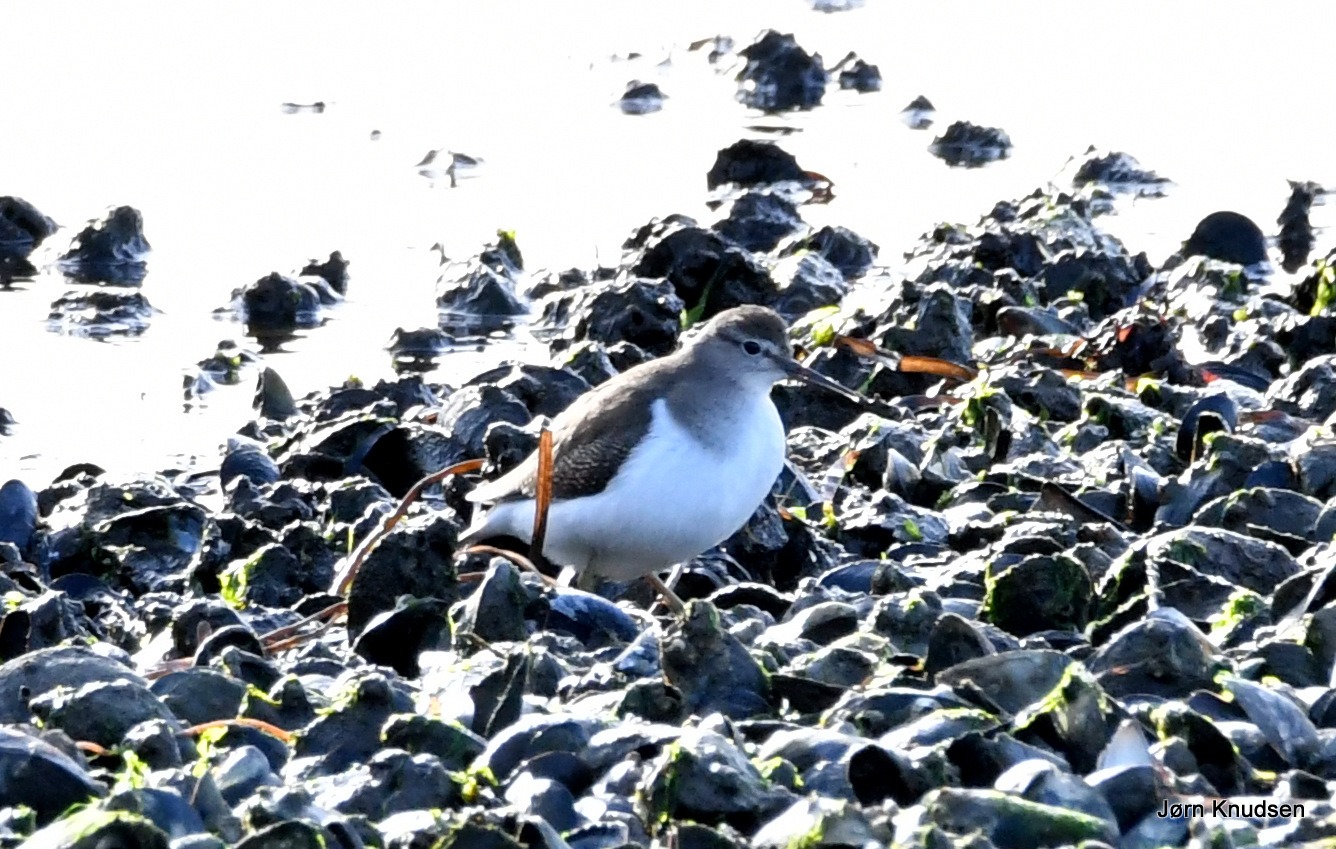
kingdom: Animalia
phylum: Chordata
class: Aves
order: Charadriiformes
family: Scolopacidae
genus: Actitis
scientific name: Actitis hypoleucos
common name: Mudderklire
